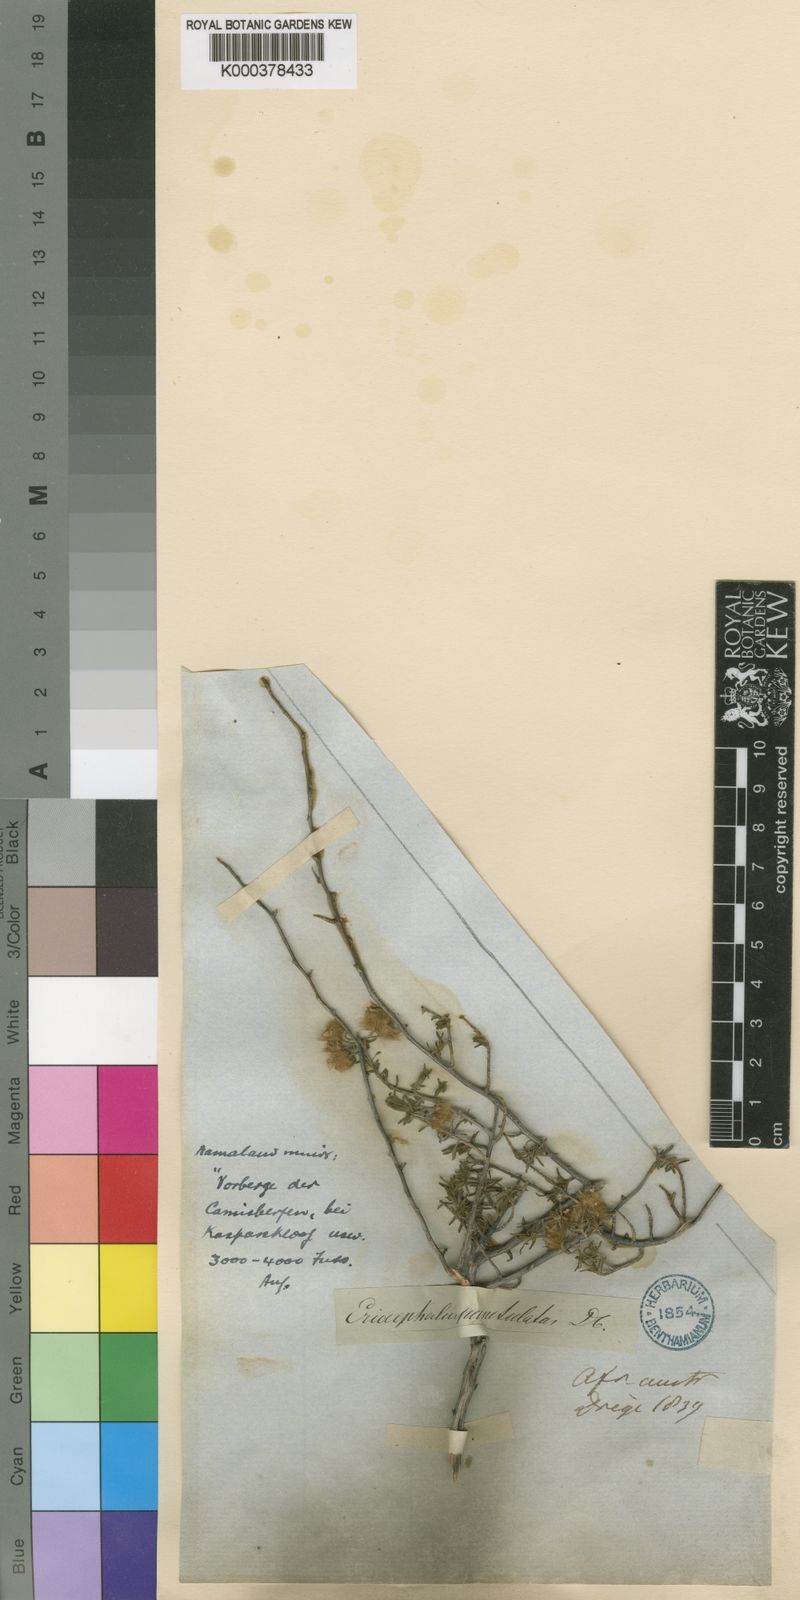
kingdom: Plantae
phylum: Tracheophyta
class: Magnoliopsida
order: Asterales
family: Asteraceae
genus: Eriocephalus
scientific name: Eriocephalus punctulatus
